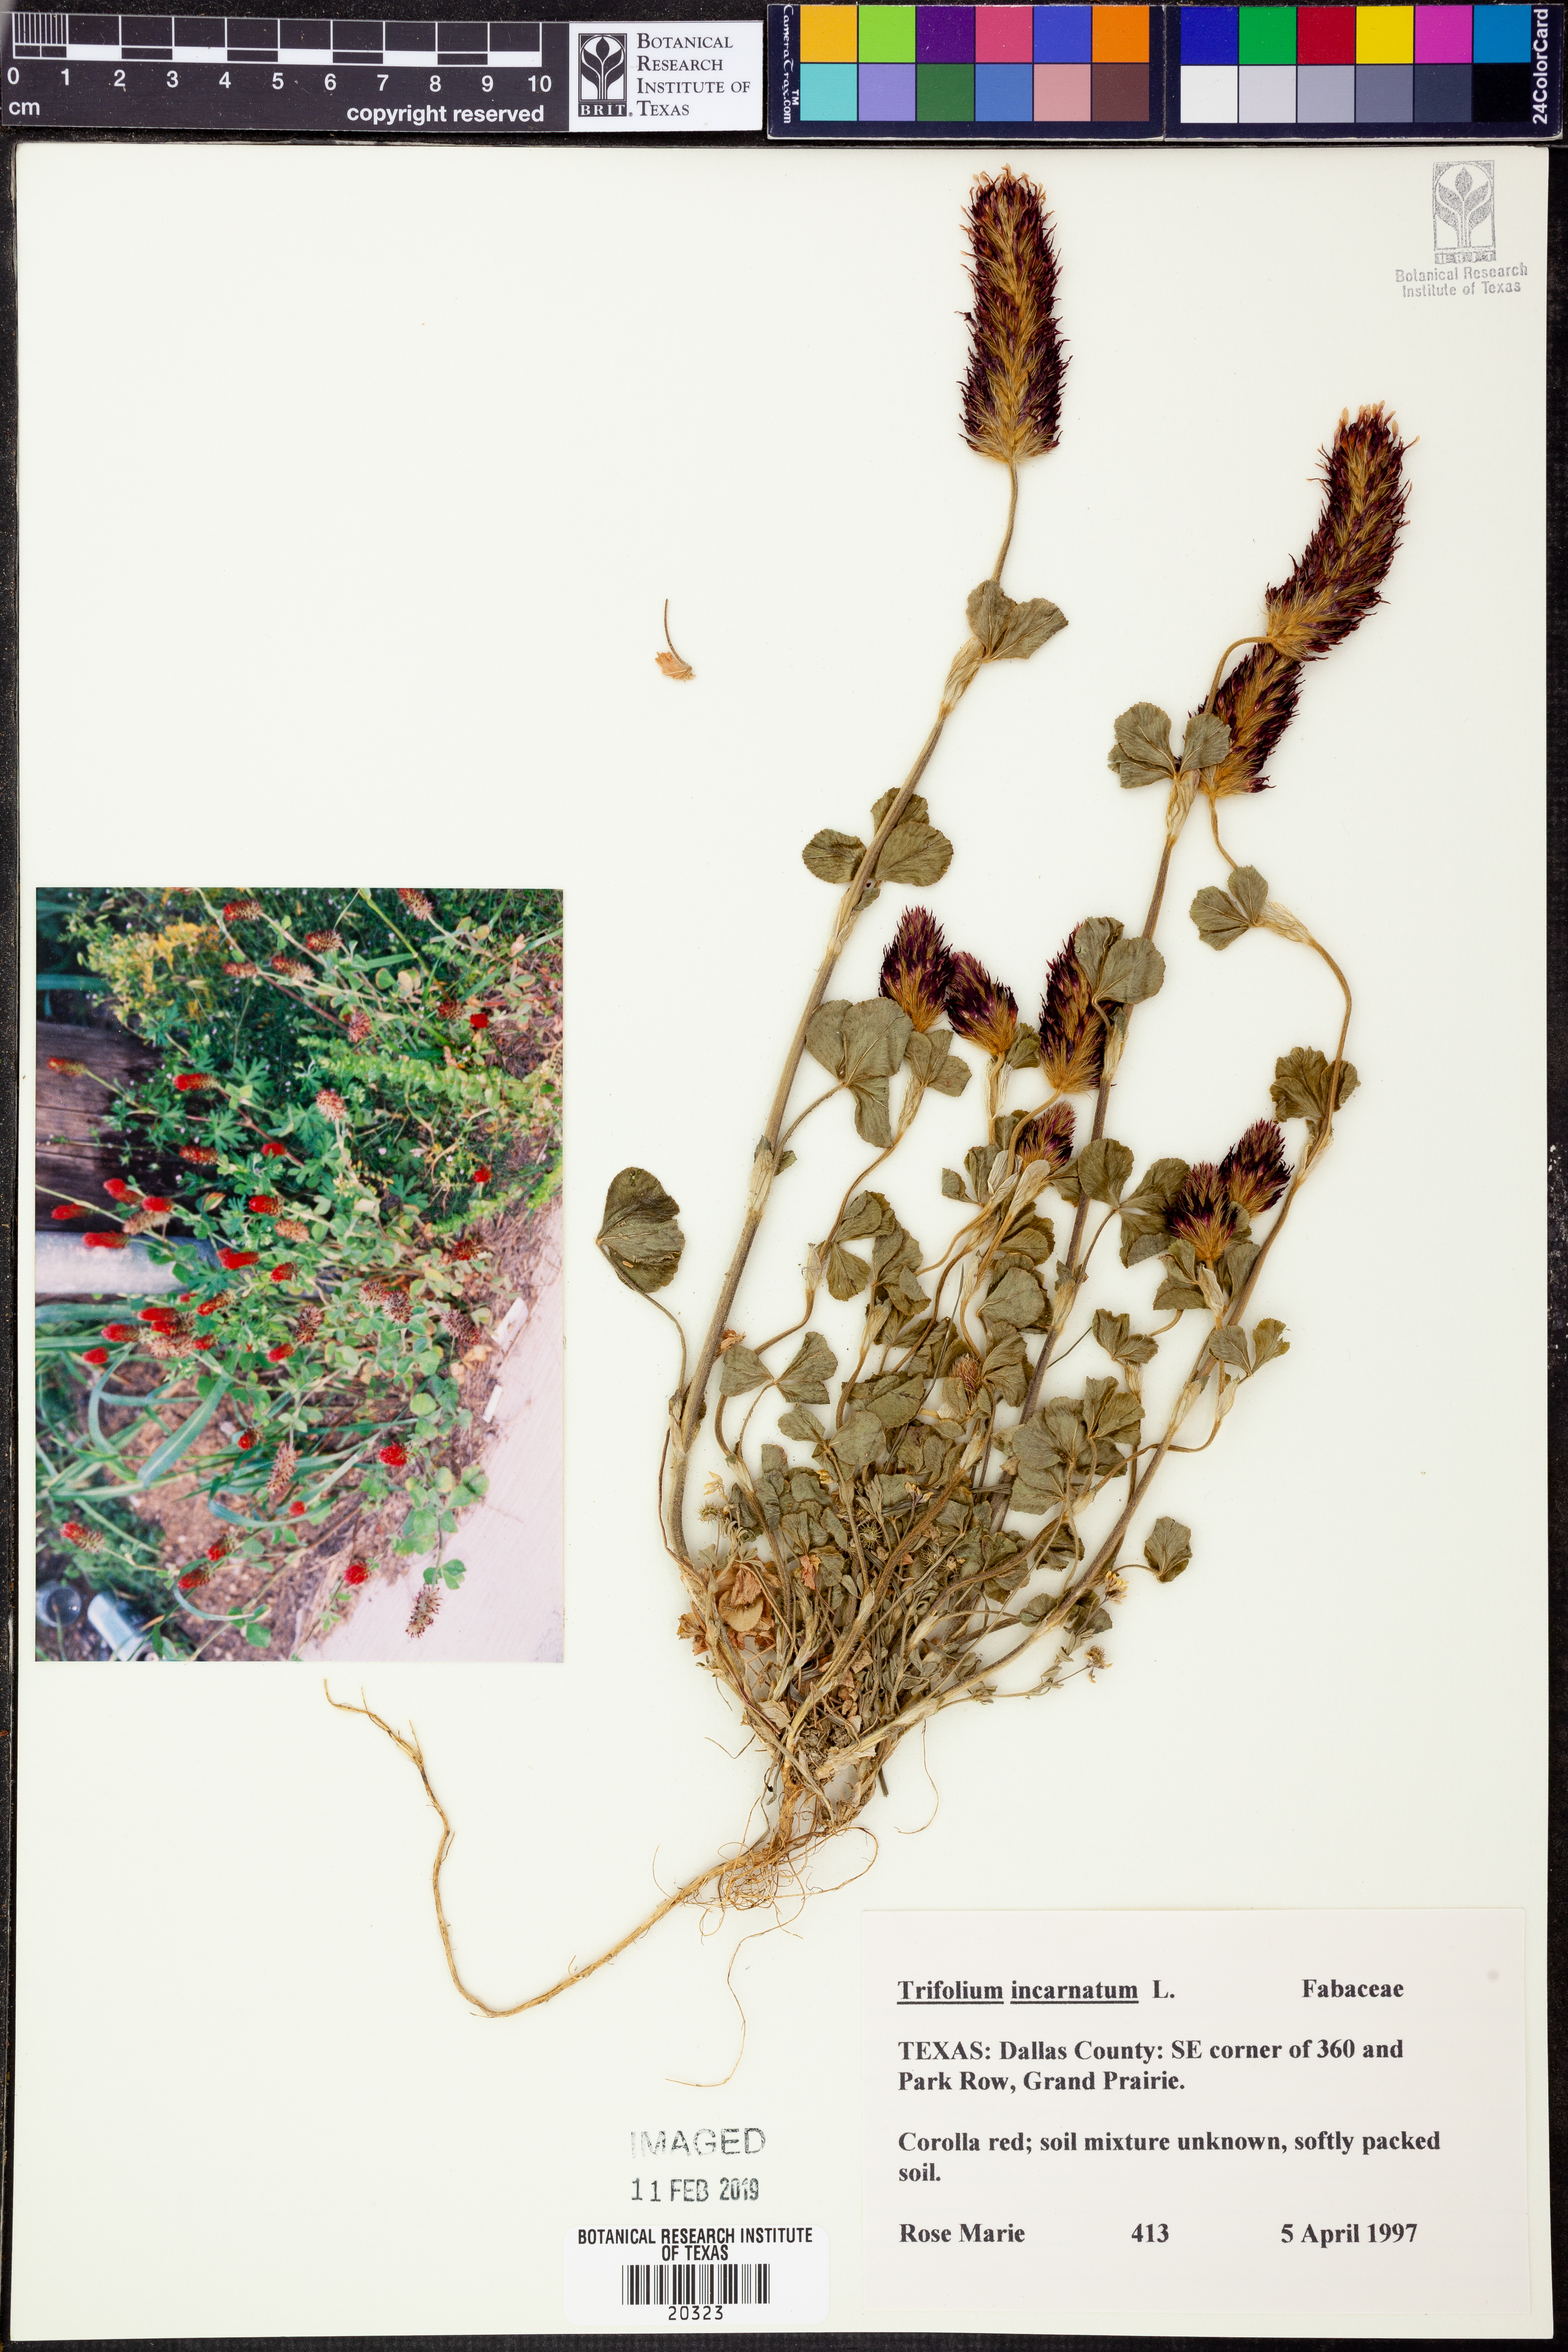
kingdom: Plantae
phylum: Tracheophyta
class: Magnoliopsida
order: Fabales
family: Fabaceae
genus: Trifolium
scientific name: Trifolium incarnatum
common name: Crimson clover
